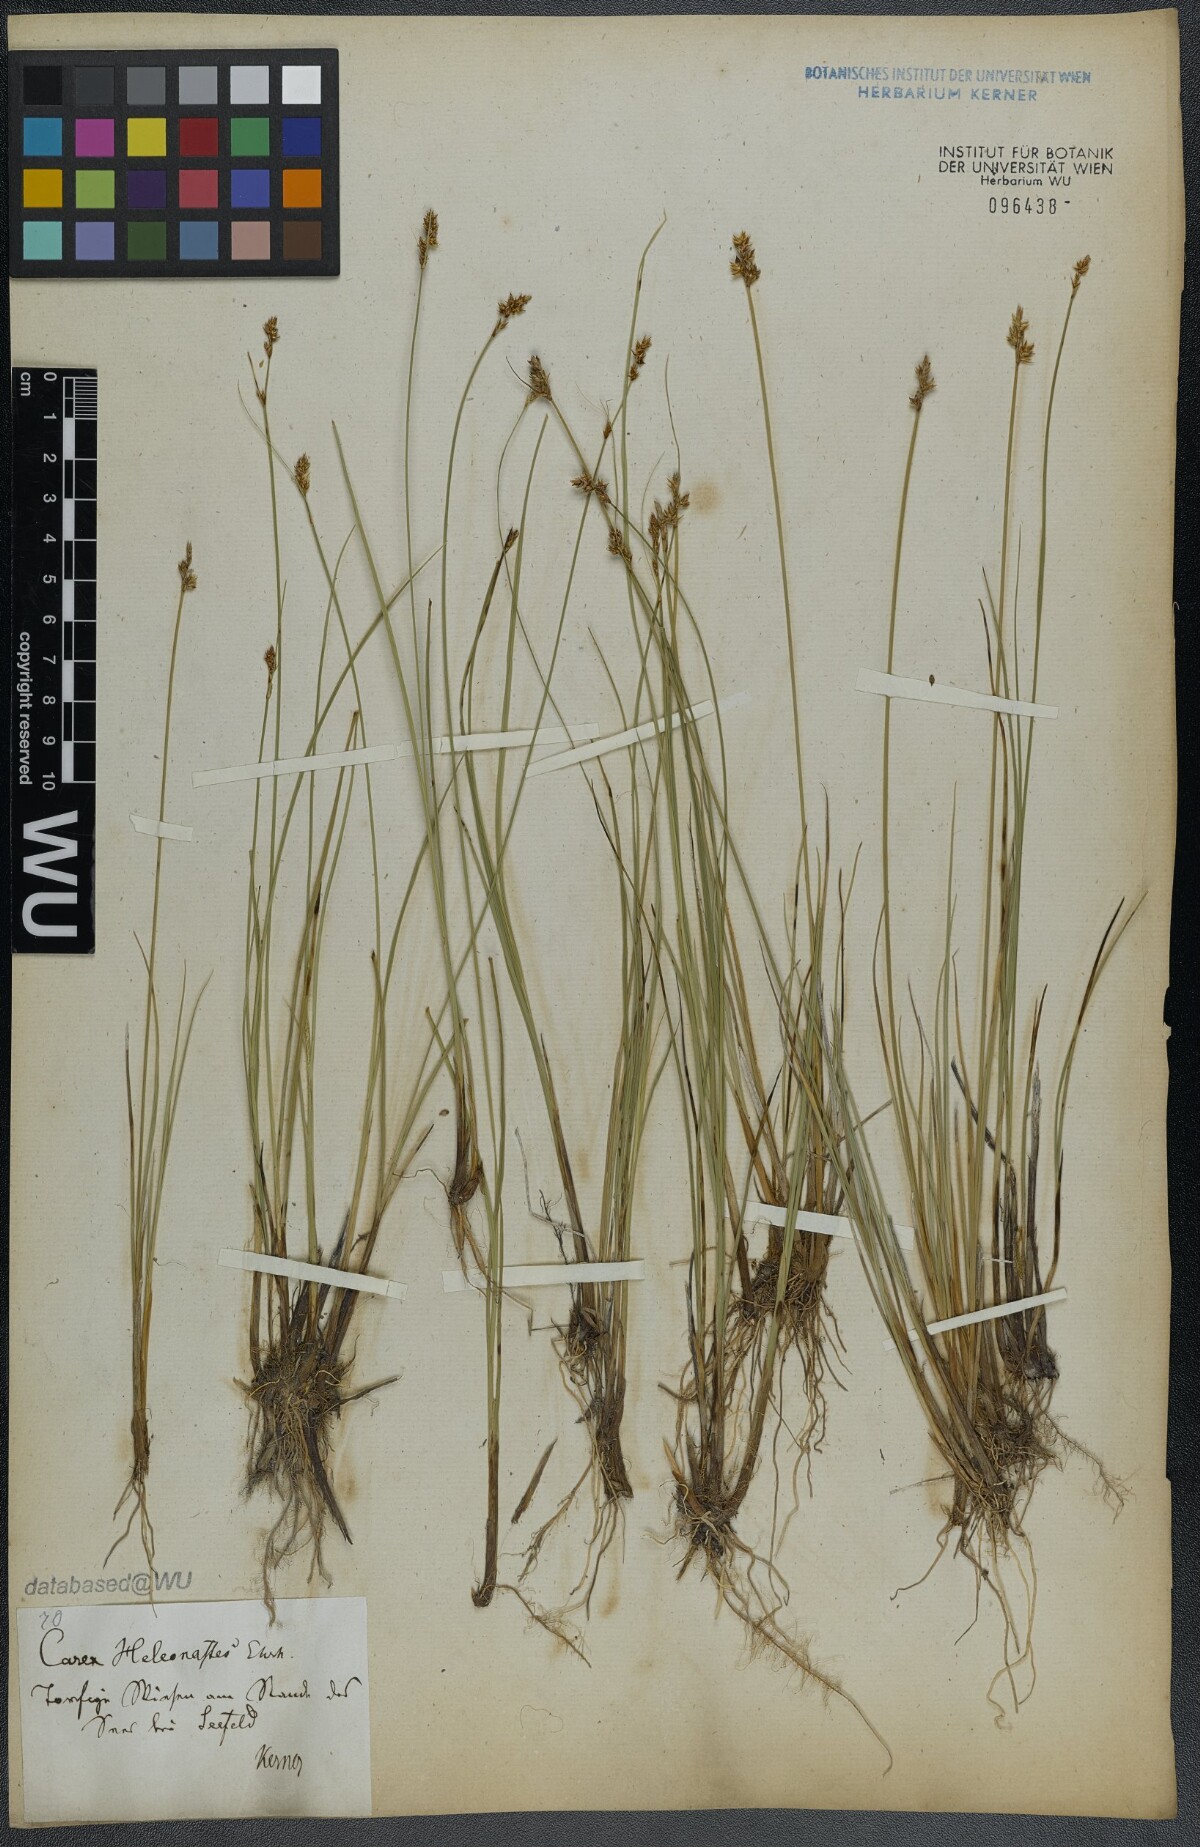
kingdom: Plantae
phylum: Tracheophyta
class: Liliopsida
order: Poales
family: Cyperaceae
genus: Carex
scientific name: Carex heleonastes
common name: Hudson bay sedge
